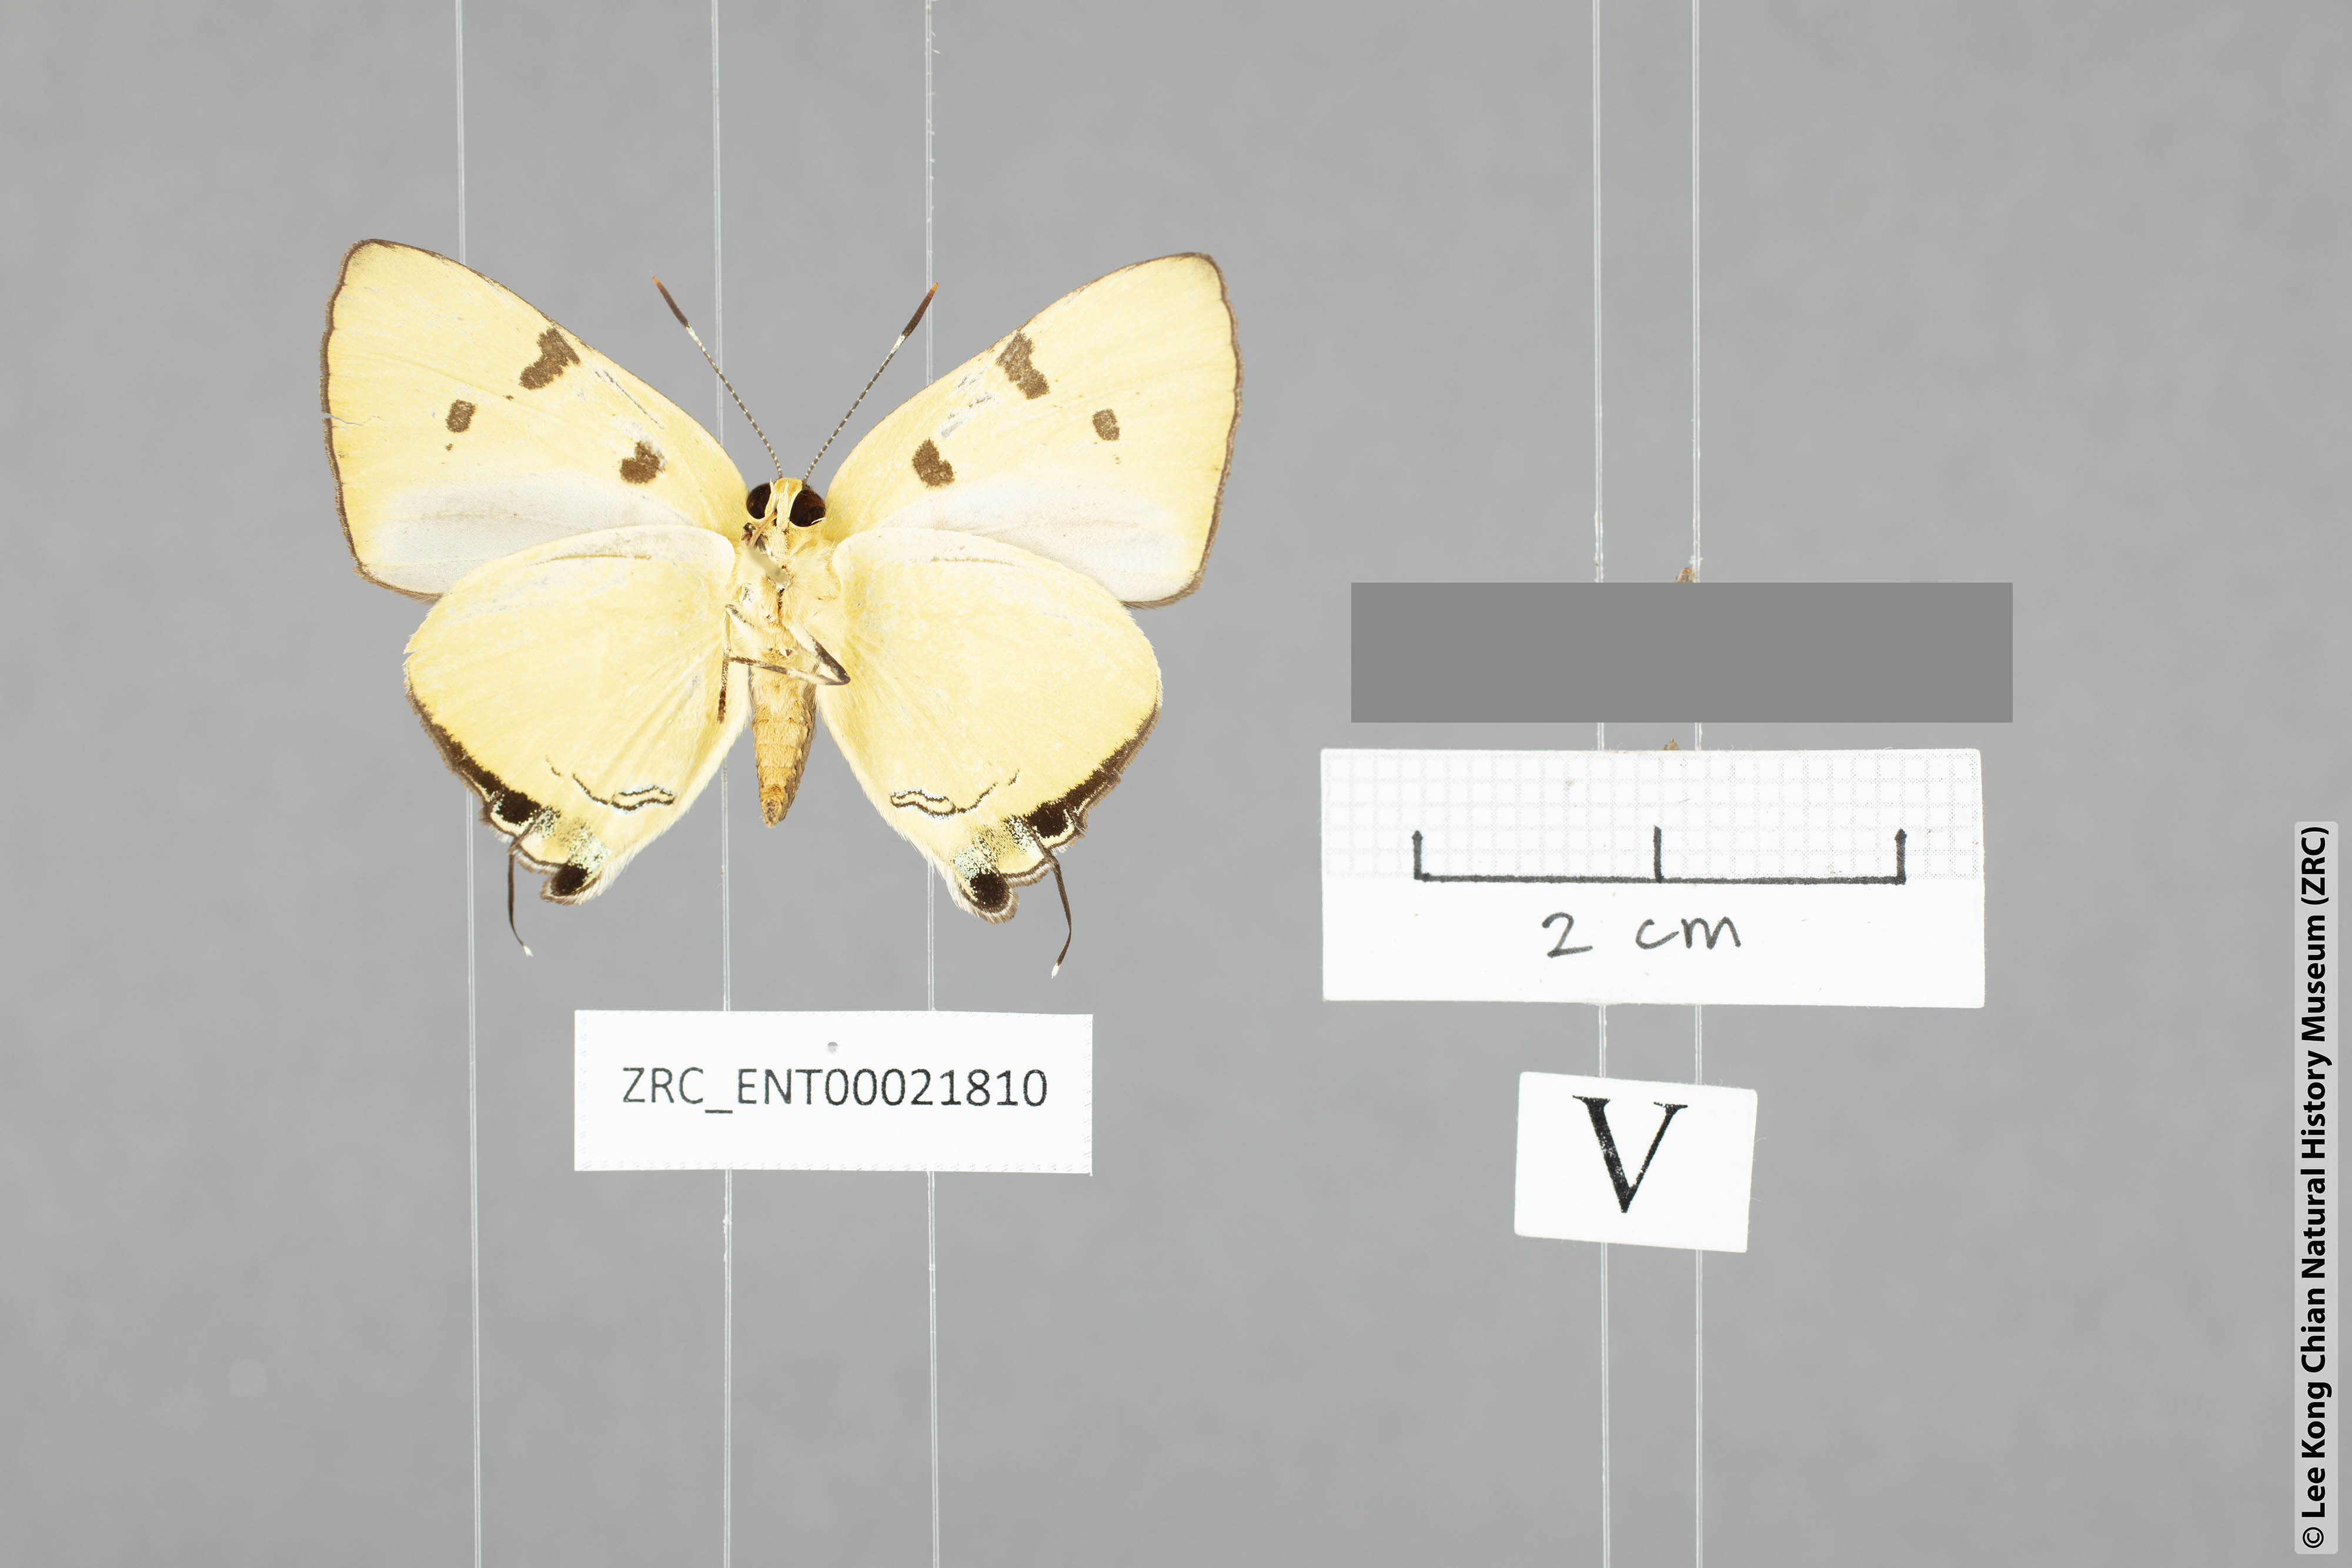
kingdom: Animalia
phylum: Arthropoda
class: Insecta
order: Lepidoptera
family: Lycaenidae
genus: Rapala
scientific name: Rapala domitia
